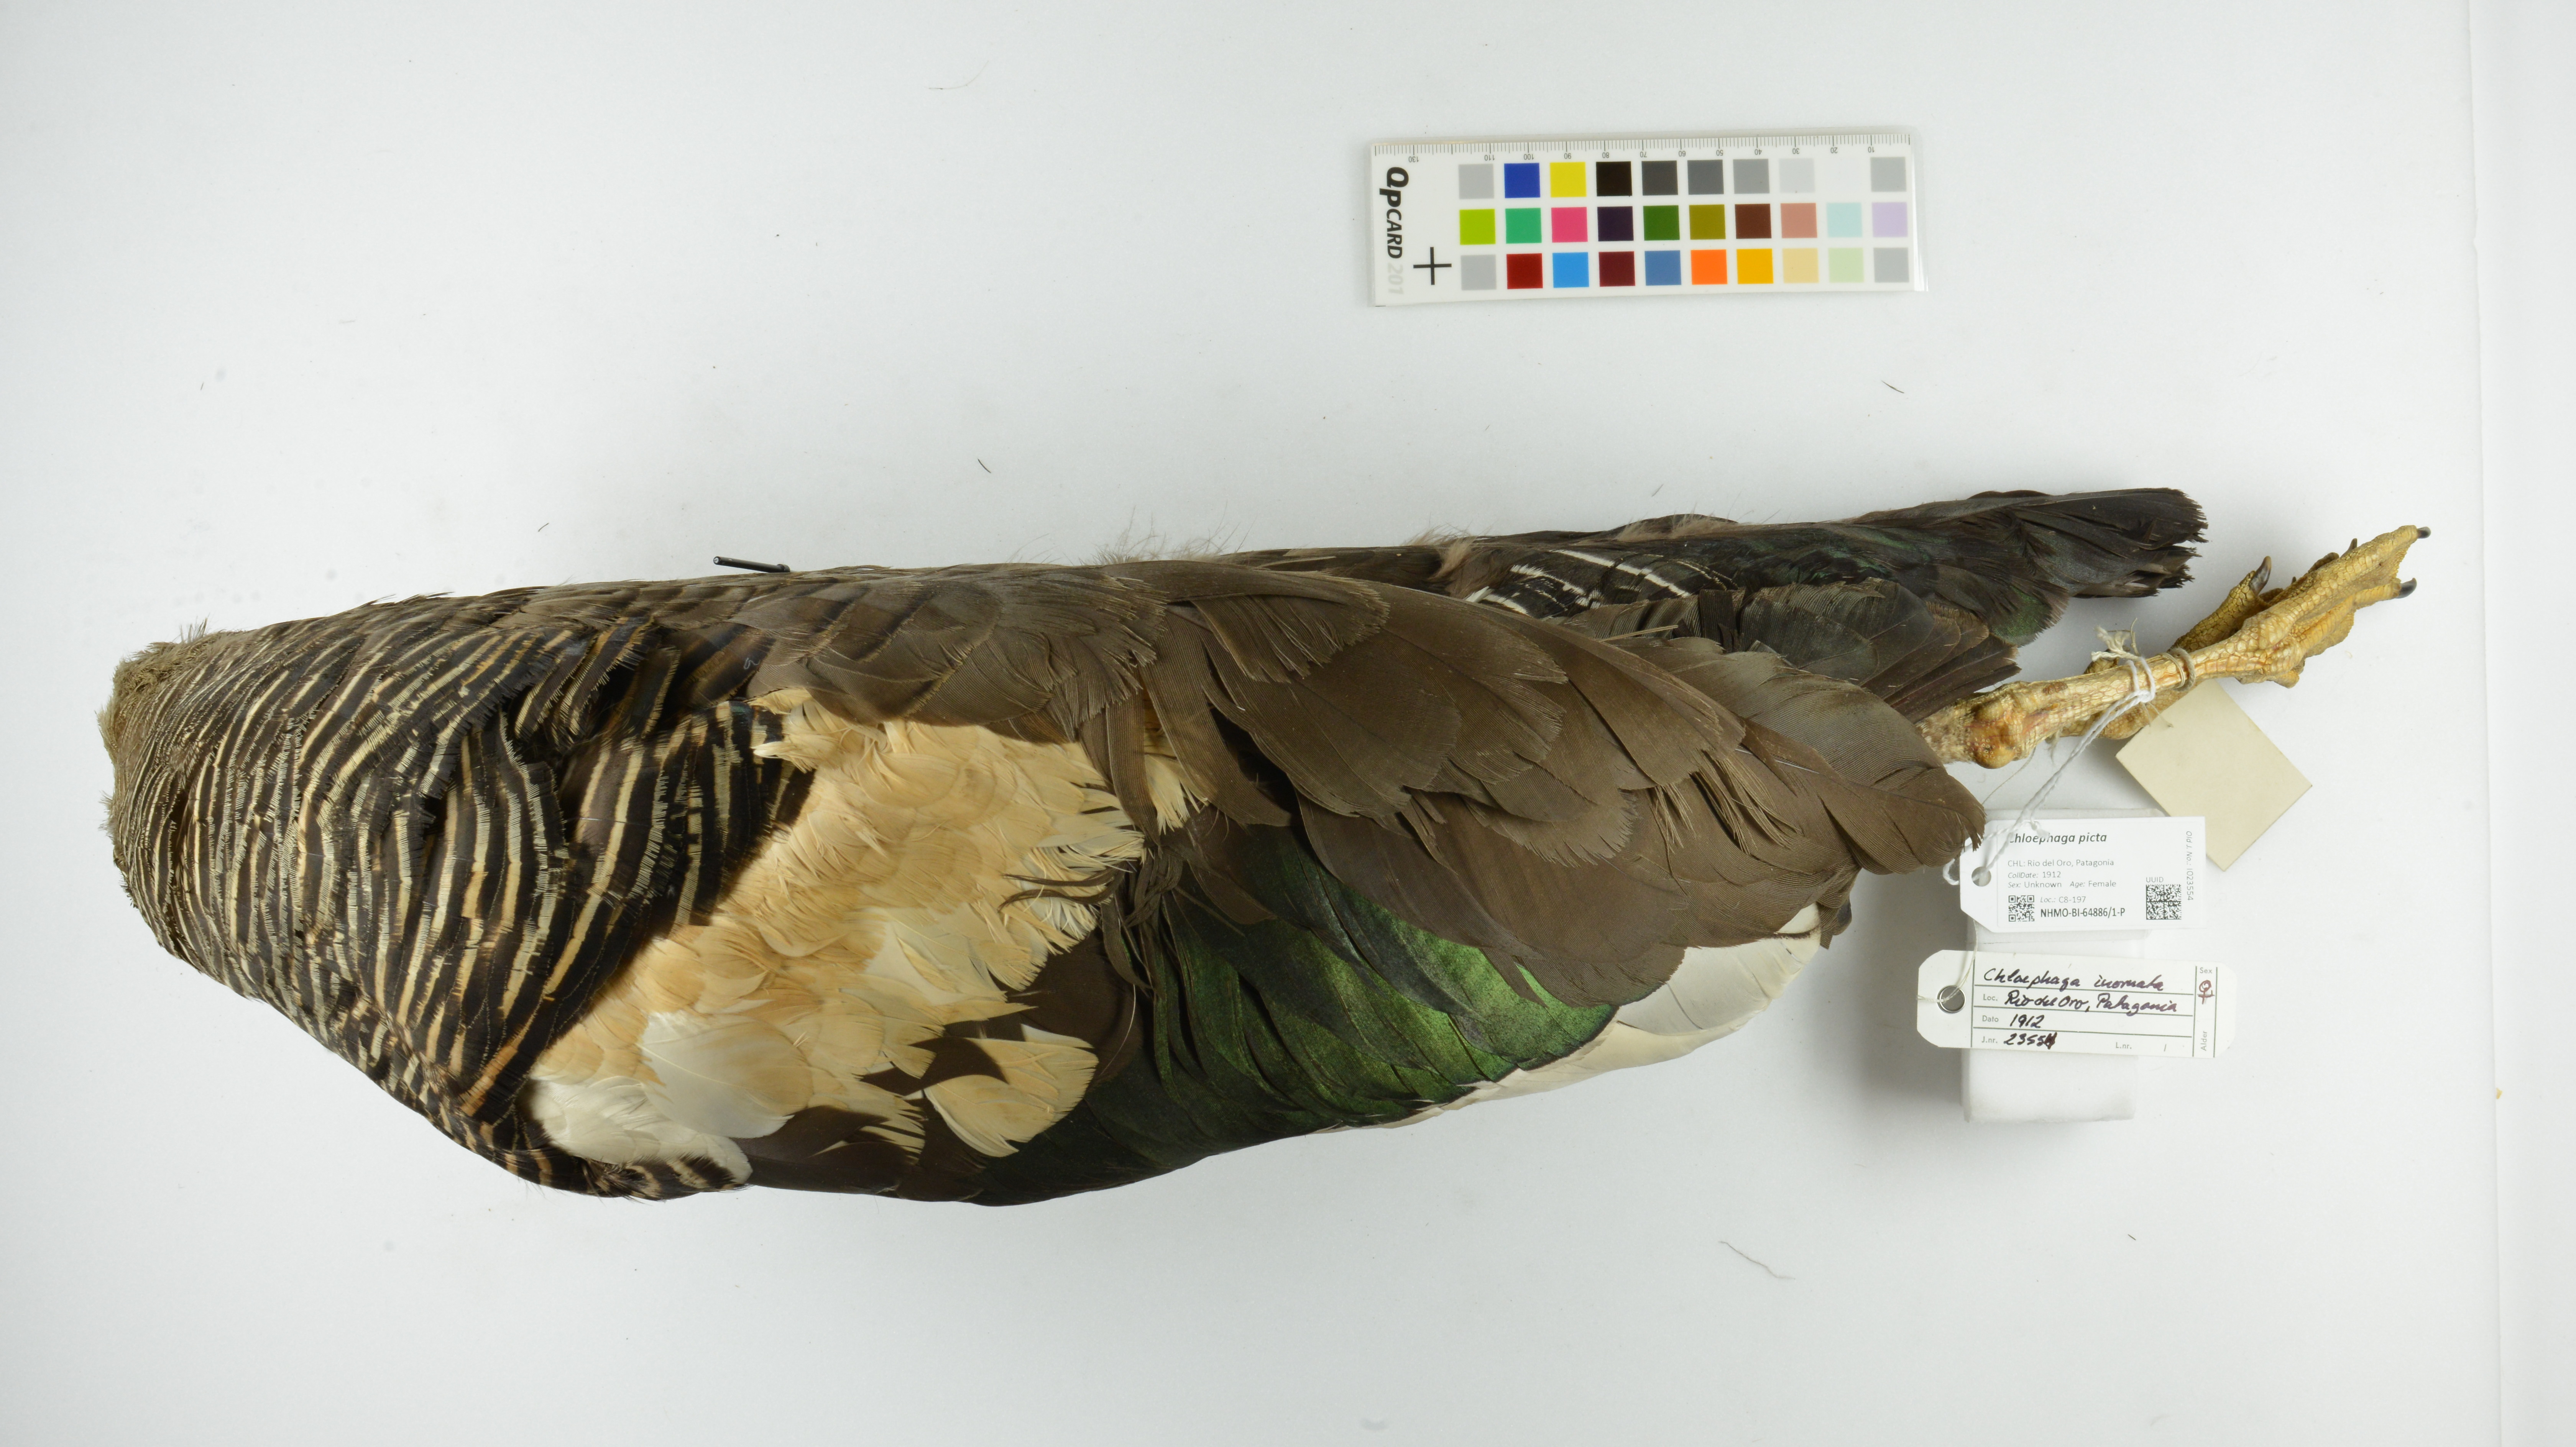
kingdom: Animalia
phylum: Chordata
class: Aves
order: Anseriformes
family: Anatidae
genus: Chloephaga
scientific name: Chloephaga picta
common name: Upland goose
